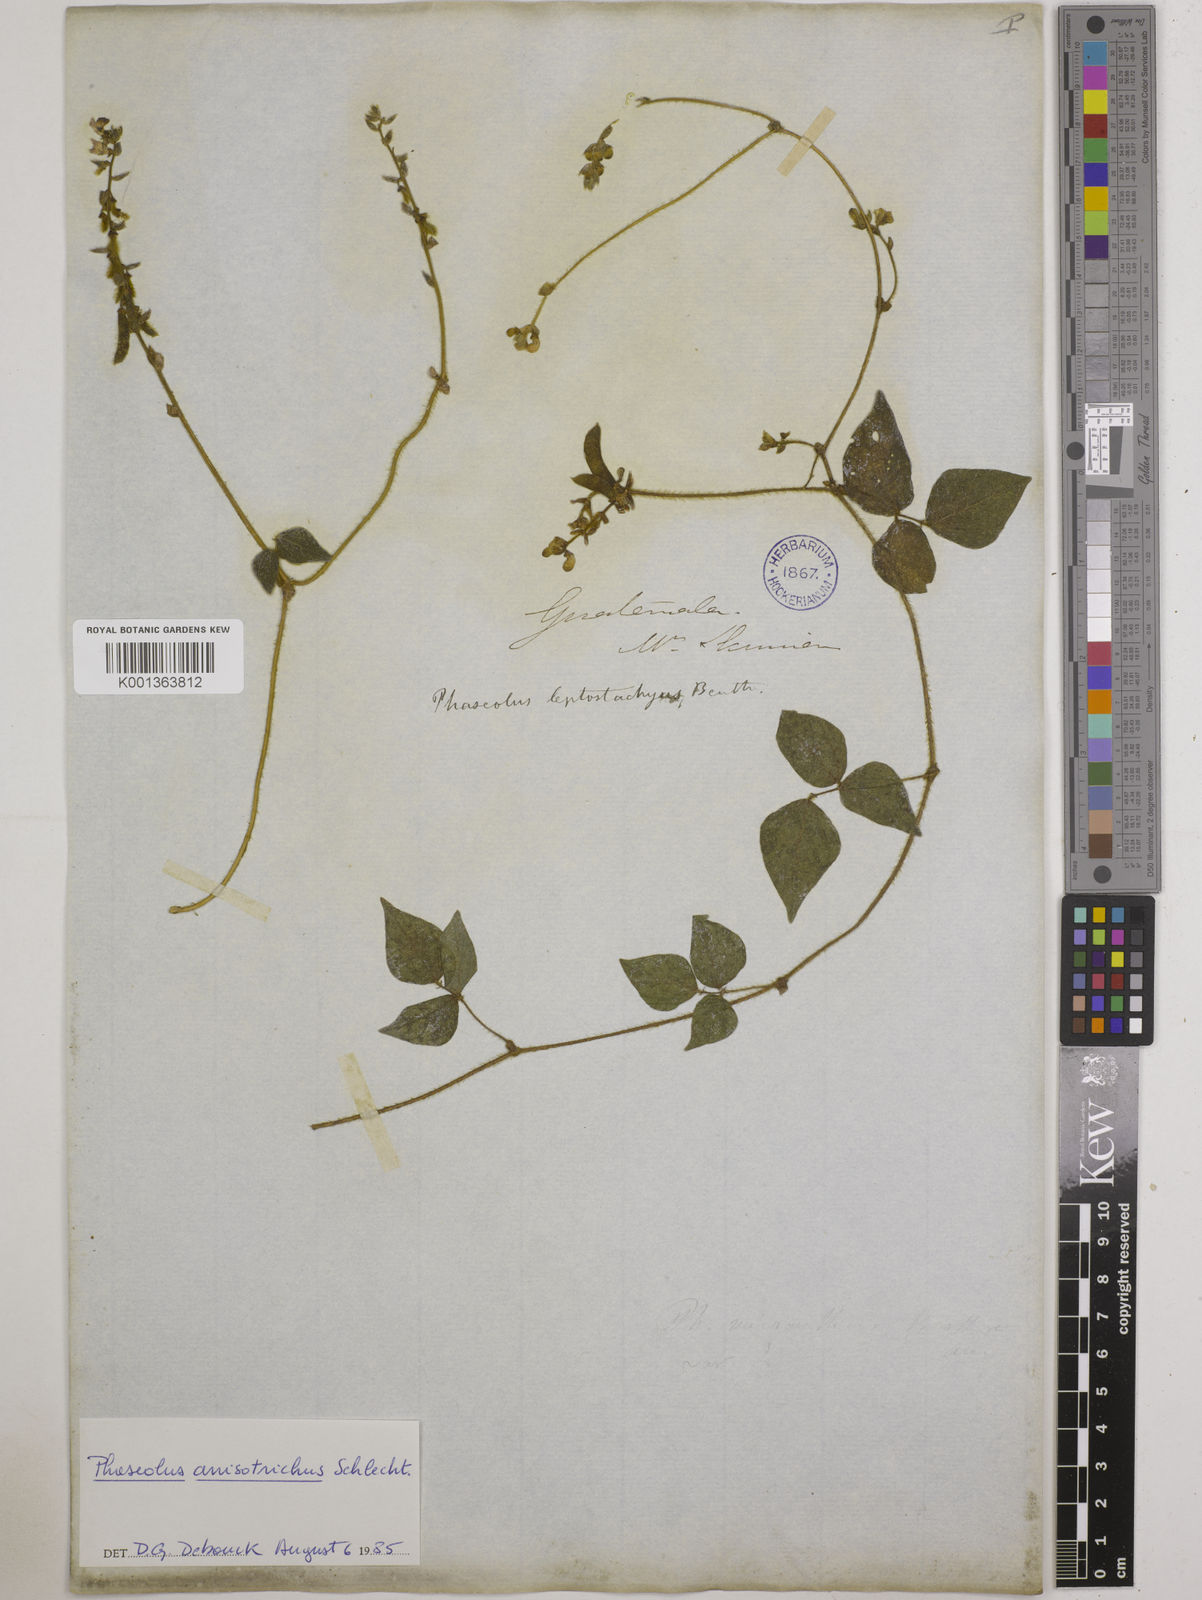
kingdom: Plantae
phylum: Tracheophyta
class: Magnoliopsida
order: Fabales
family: Fabaceae
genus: Phaseolus
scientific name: Phaseolus
